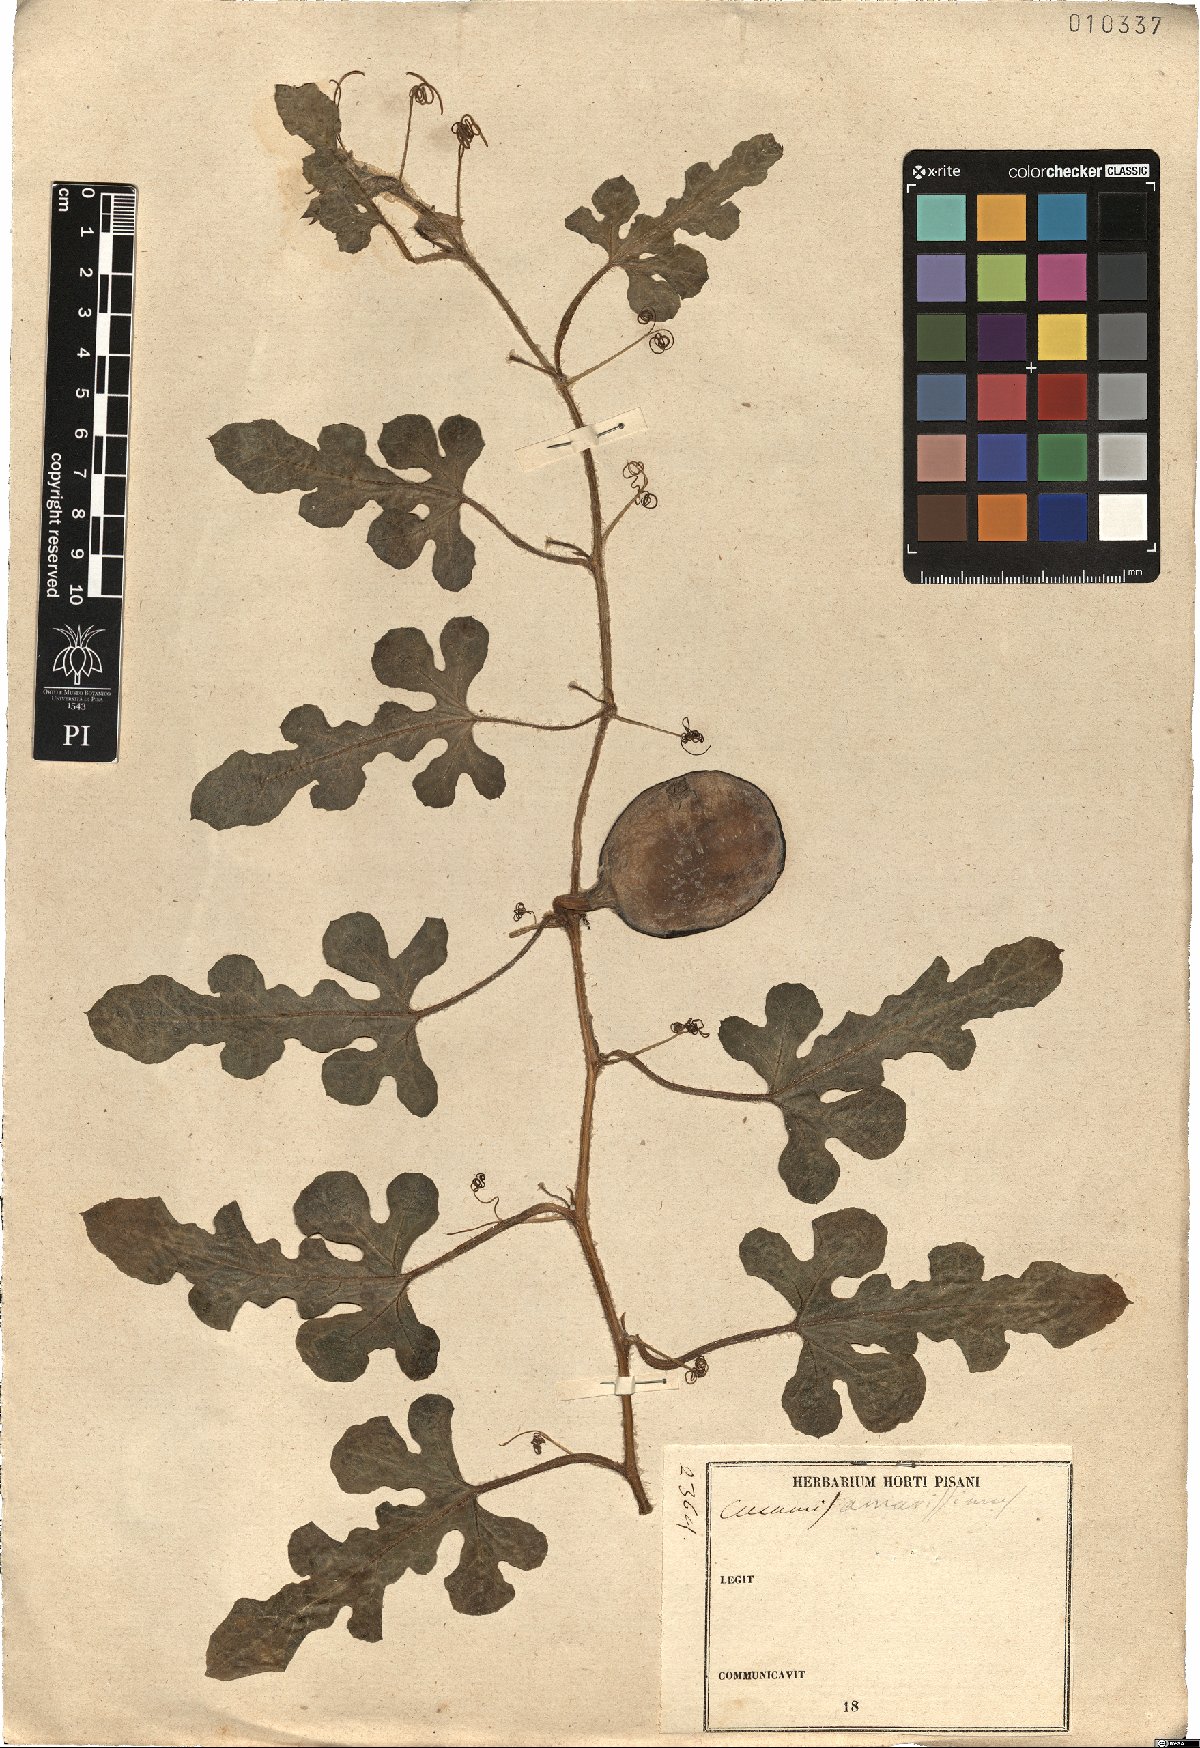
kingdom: Plantae
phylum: Tracheophyta
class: Magnoliopsida
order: Cucurbitales
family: Cucurbitaceae
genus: Cucumis
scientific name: Cucumis
